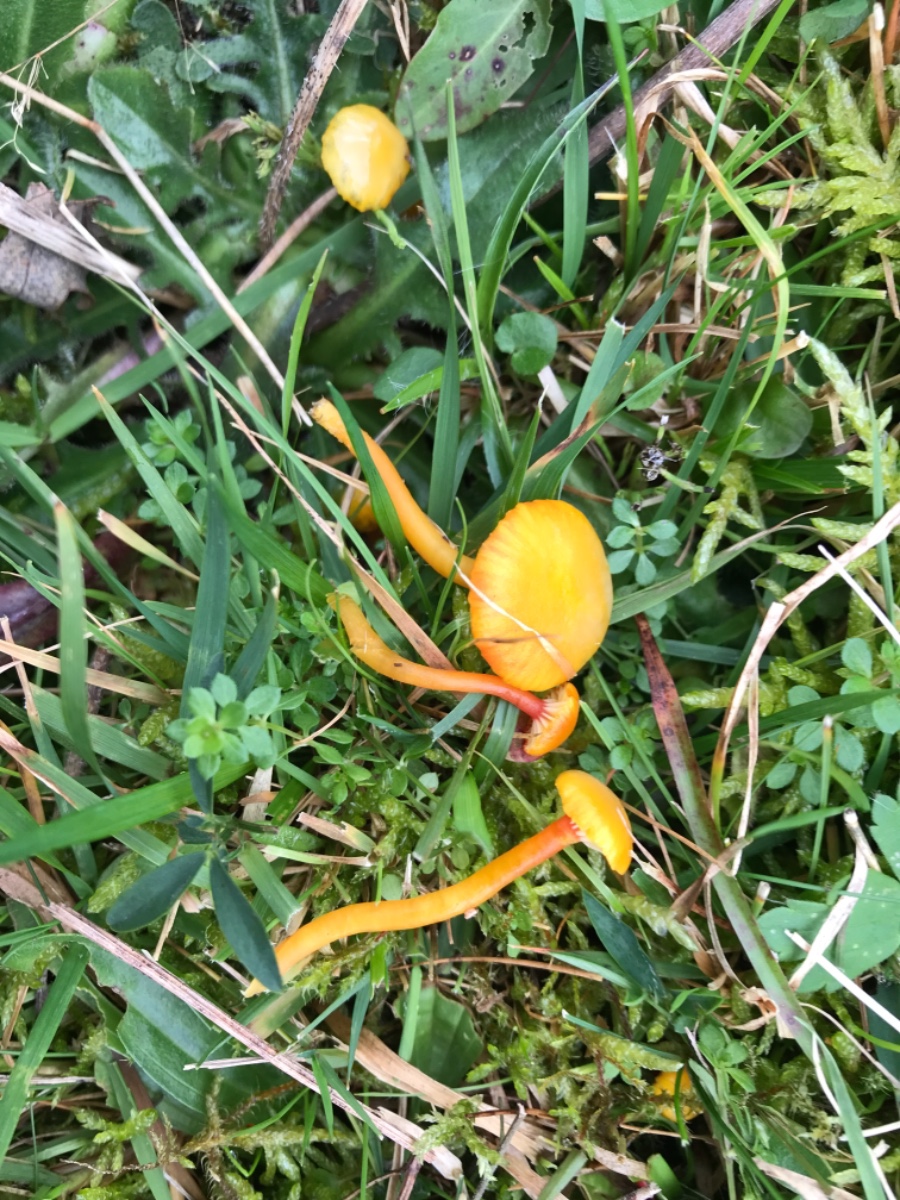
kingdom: Fungi
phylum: Basidiomycota
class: Agaricomycetes
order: Agaricales
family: Hygrophoraceae
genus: Hygrocybe
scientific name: Hygrocybe insipida
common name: liden vokshat
